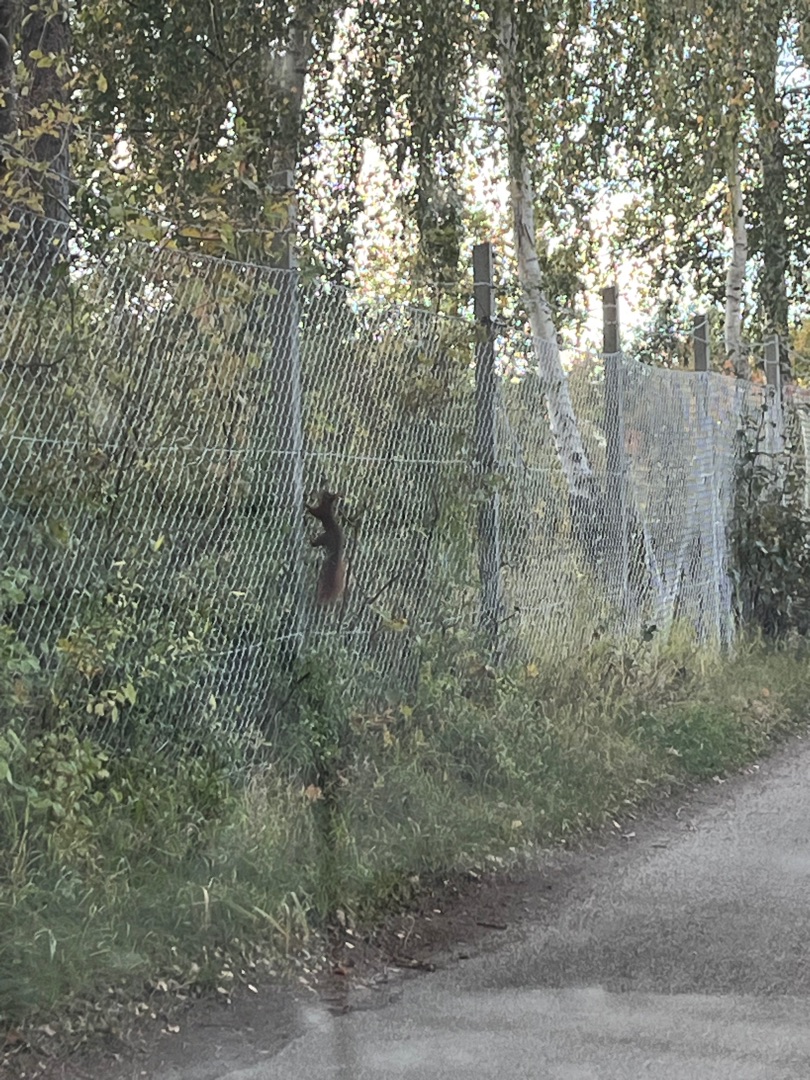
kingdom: Animalia
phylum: Chordata
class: Mammalia
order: Rodentia
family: Sciuridae
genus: Sciurus
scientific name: Sciurus vulgaris
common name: Egern
